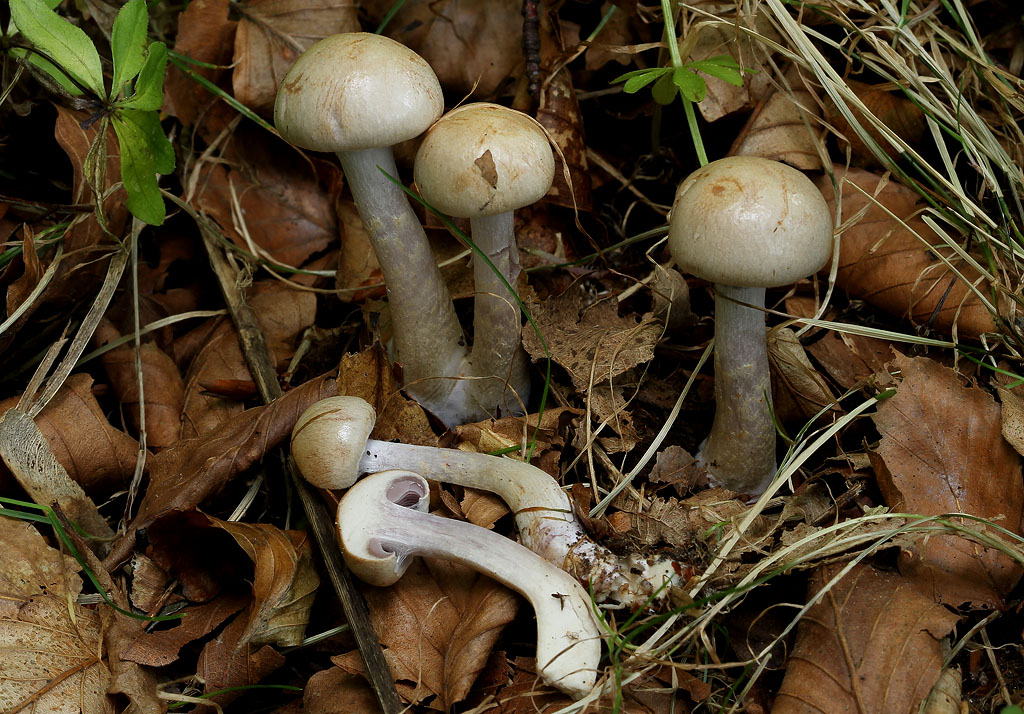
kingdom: Fungi
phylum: Basidiomycota
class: Agaricomycetes
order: Agaricales
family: Cortinariaceae
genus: Cortinarius
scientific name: Cortinarius anomalus
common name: Variable webcap
